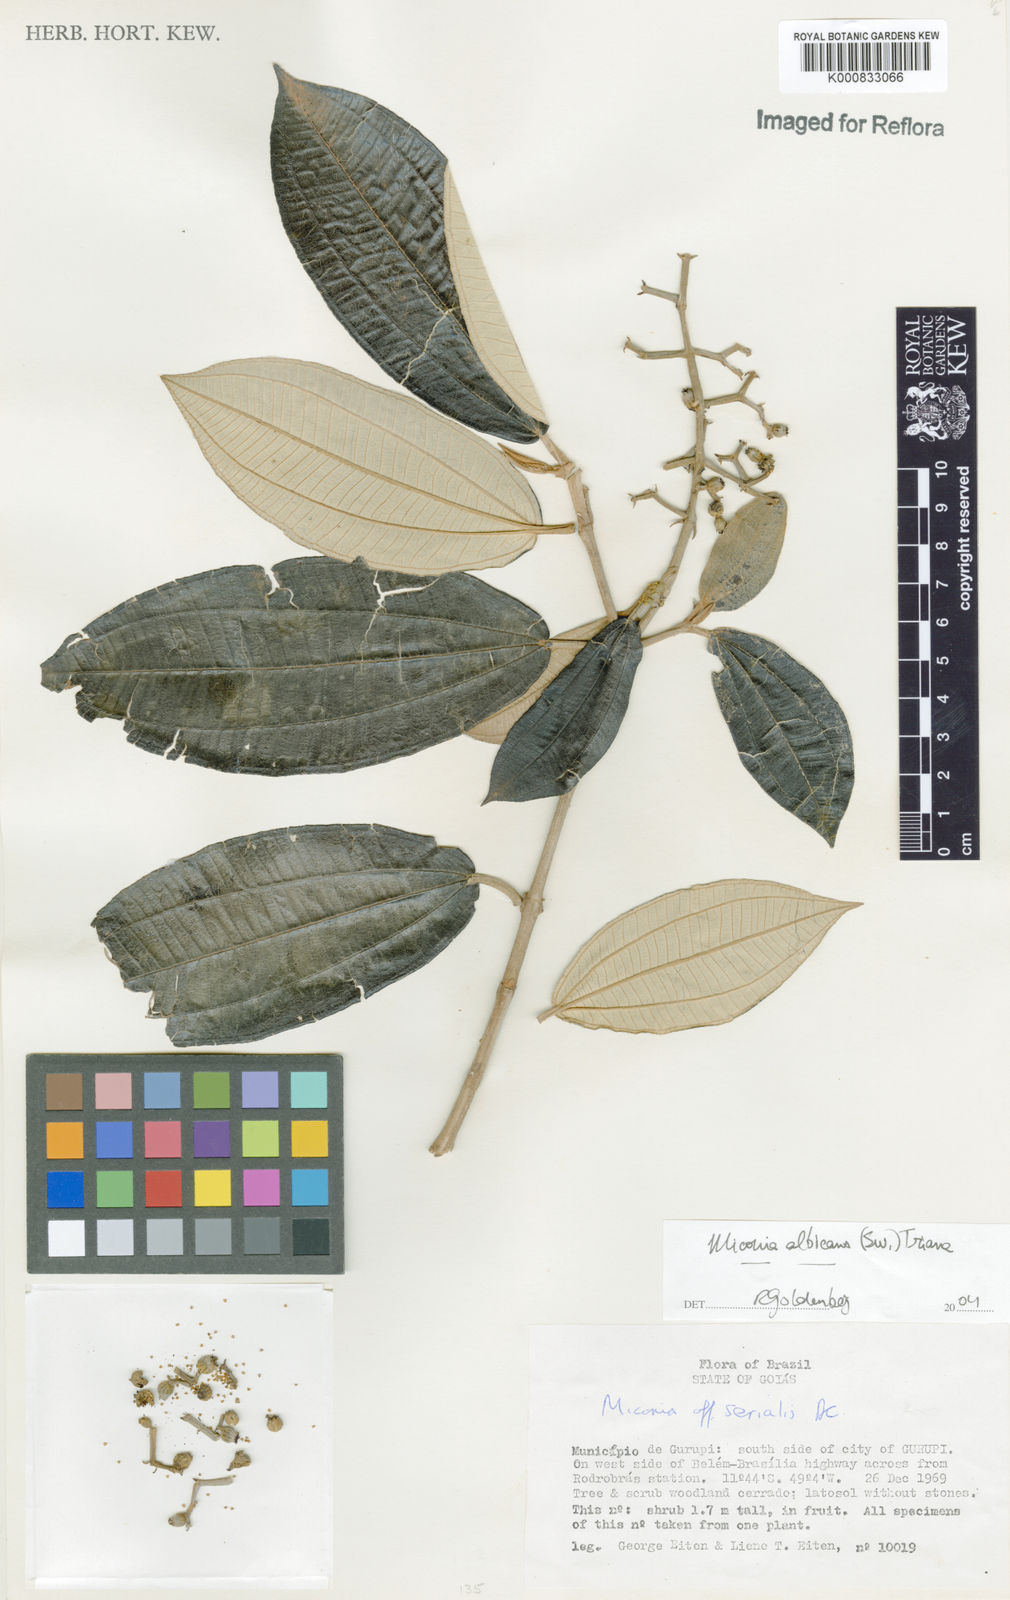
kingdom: Plantae
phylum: Tracheophyta
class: Magnoliopsida
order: Myrtales
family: Melastomataceae
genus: Miconia
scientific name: Miconia albicans
